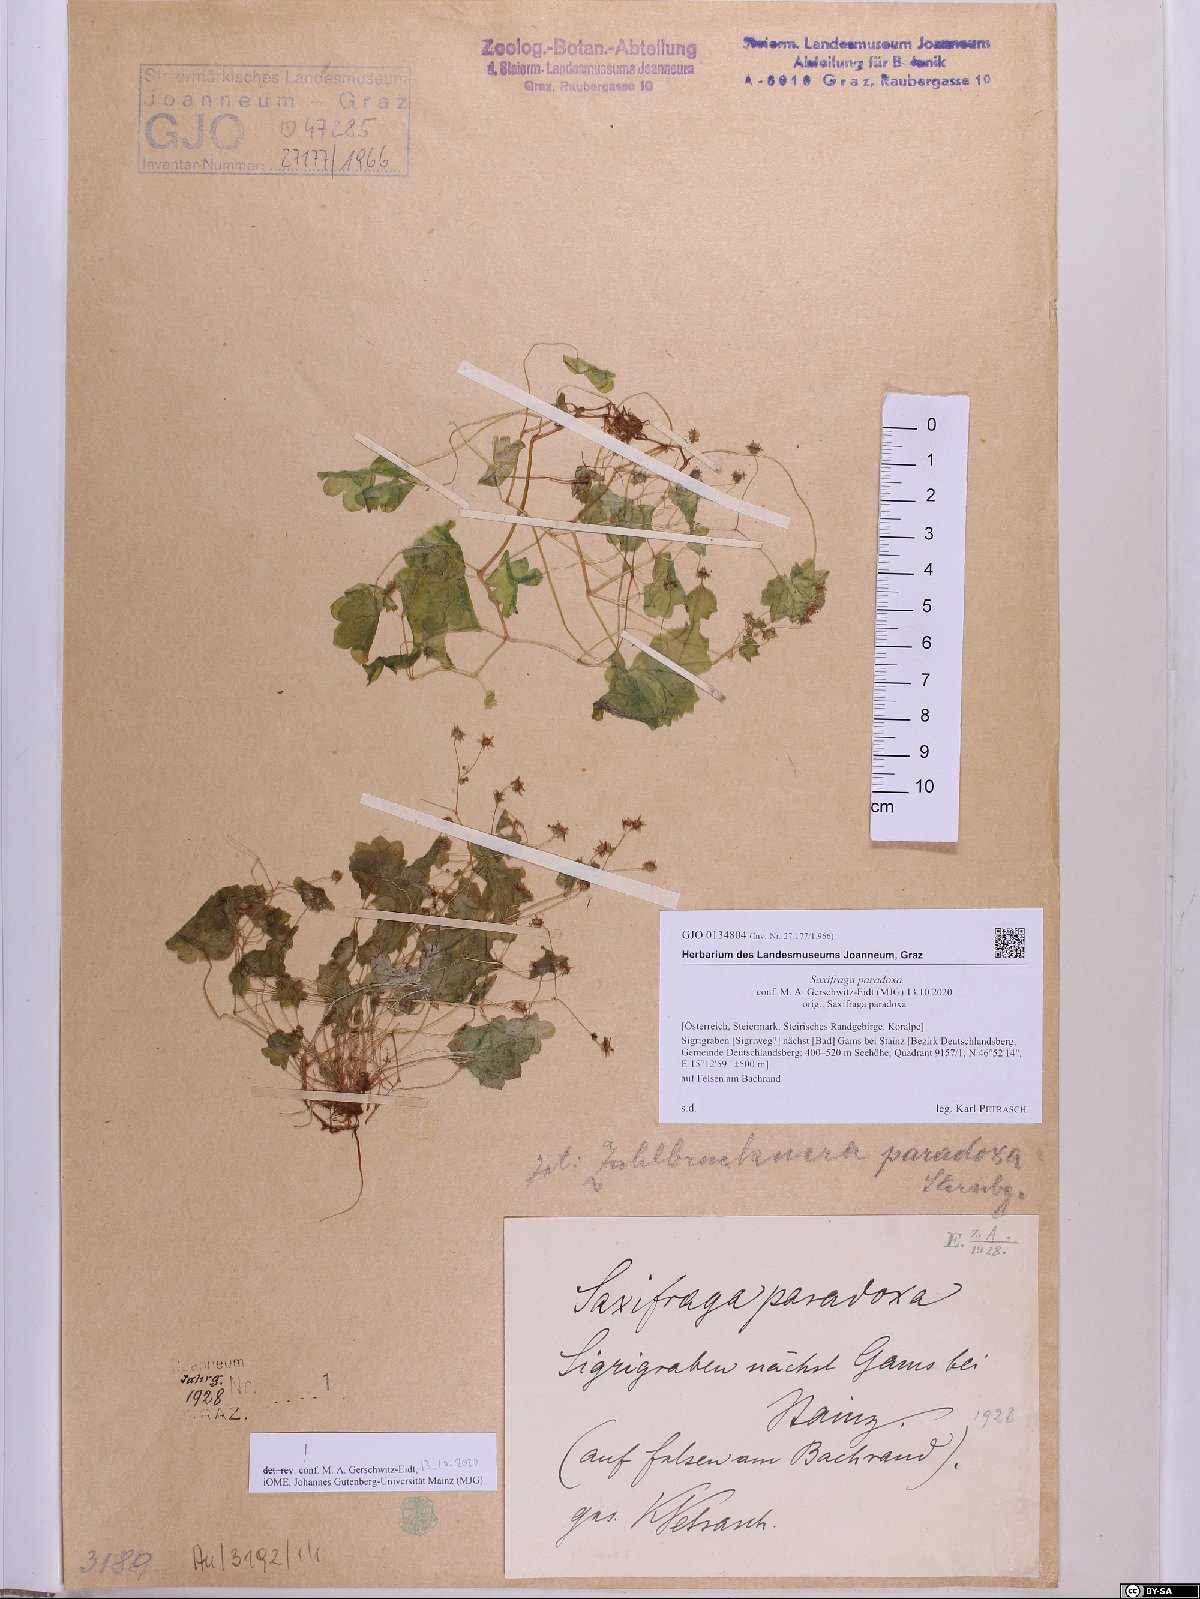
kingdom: Plantae
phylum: Tracheophyta
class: Magnoliopsida
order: Saxifragales
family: Saxifragaceae
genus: Saxifraga
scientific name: Saxifraga paradoxa
